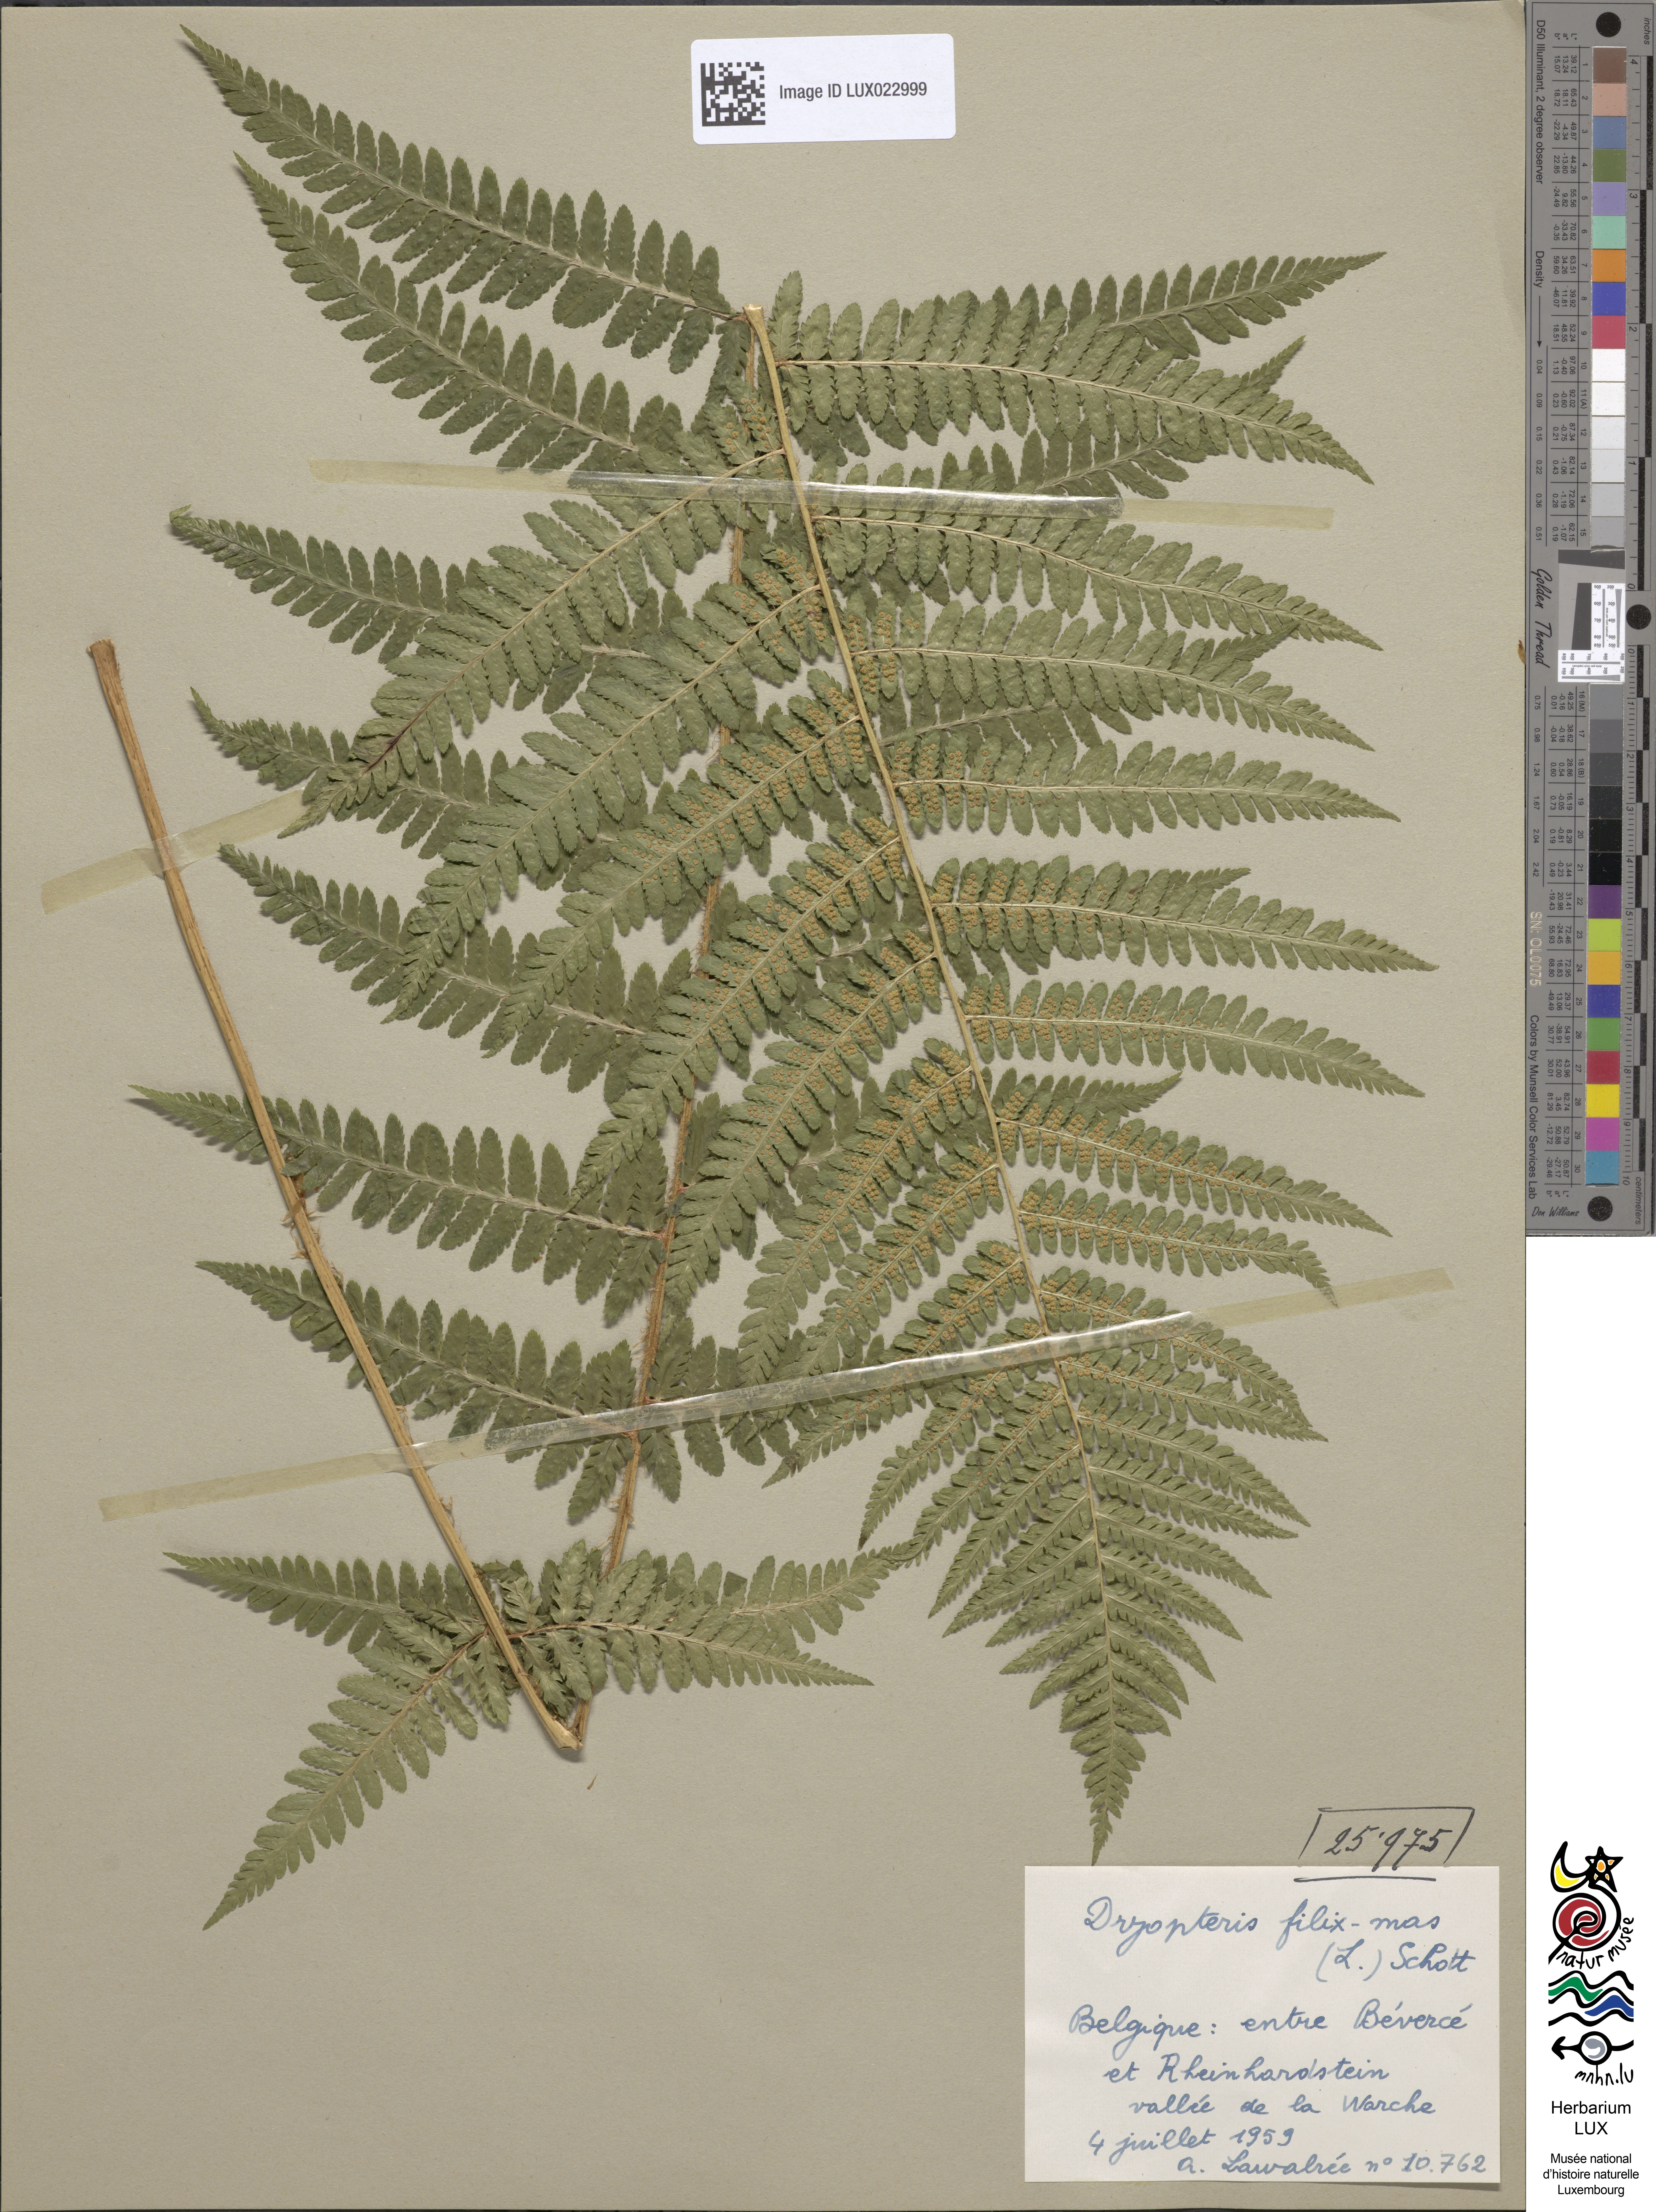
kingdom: Plantae
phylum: Tracheophyta
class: Polypodiopsida
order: Polypodiales
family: Dryopteridaceae
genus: Dryopteris
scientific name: Dryopteris filix-mas
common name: Male fern
